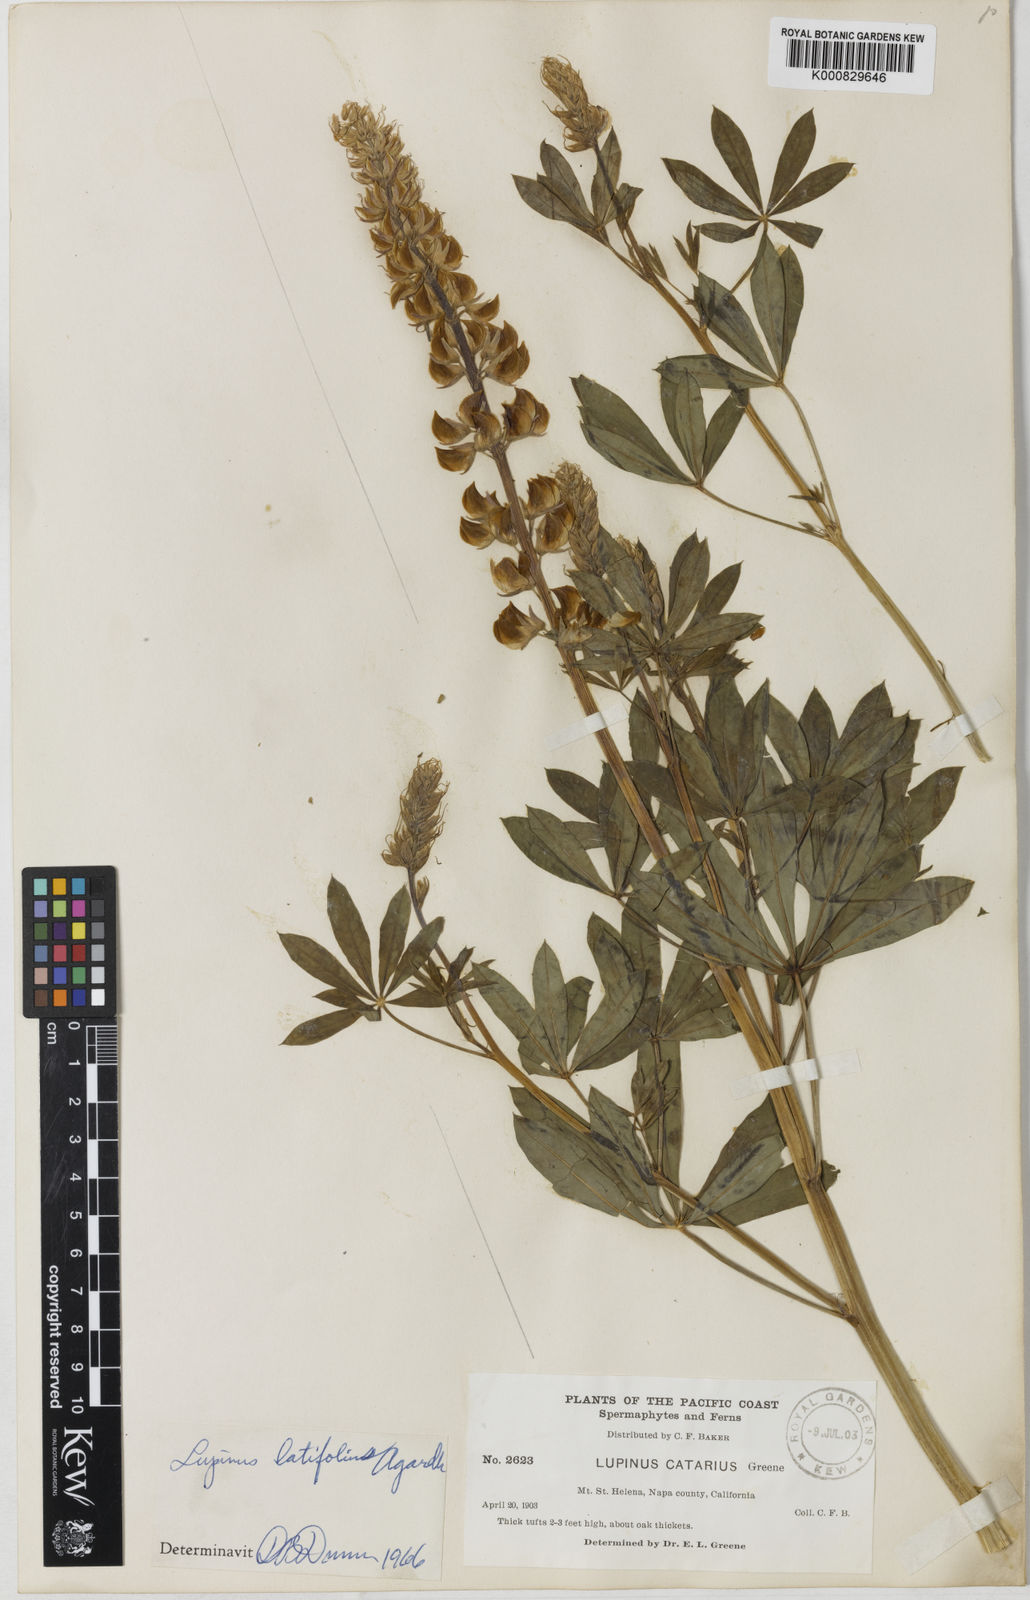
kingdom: Plantae
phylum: Tracheophyta
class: Magnoliopsida
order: Fabales
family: Fabaceae
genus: Lupinus
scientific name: Lupinus latifolius
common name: Broad-leaved lupine
